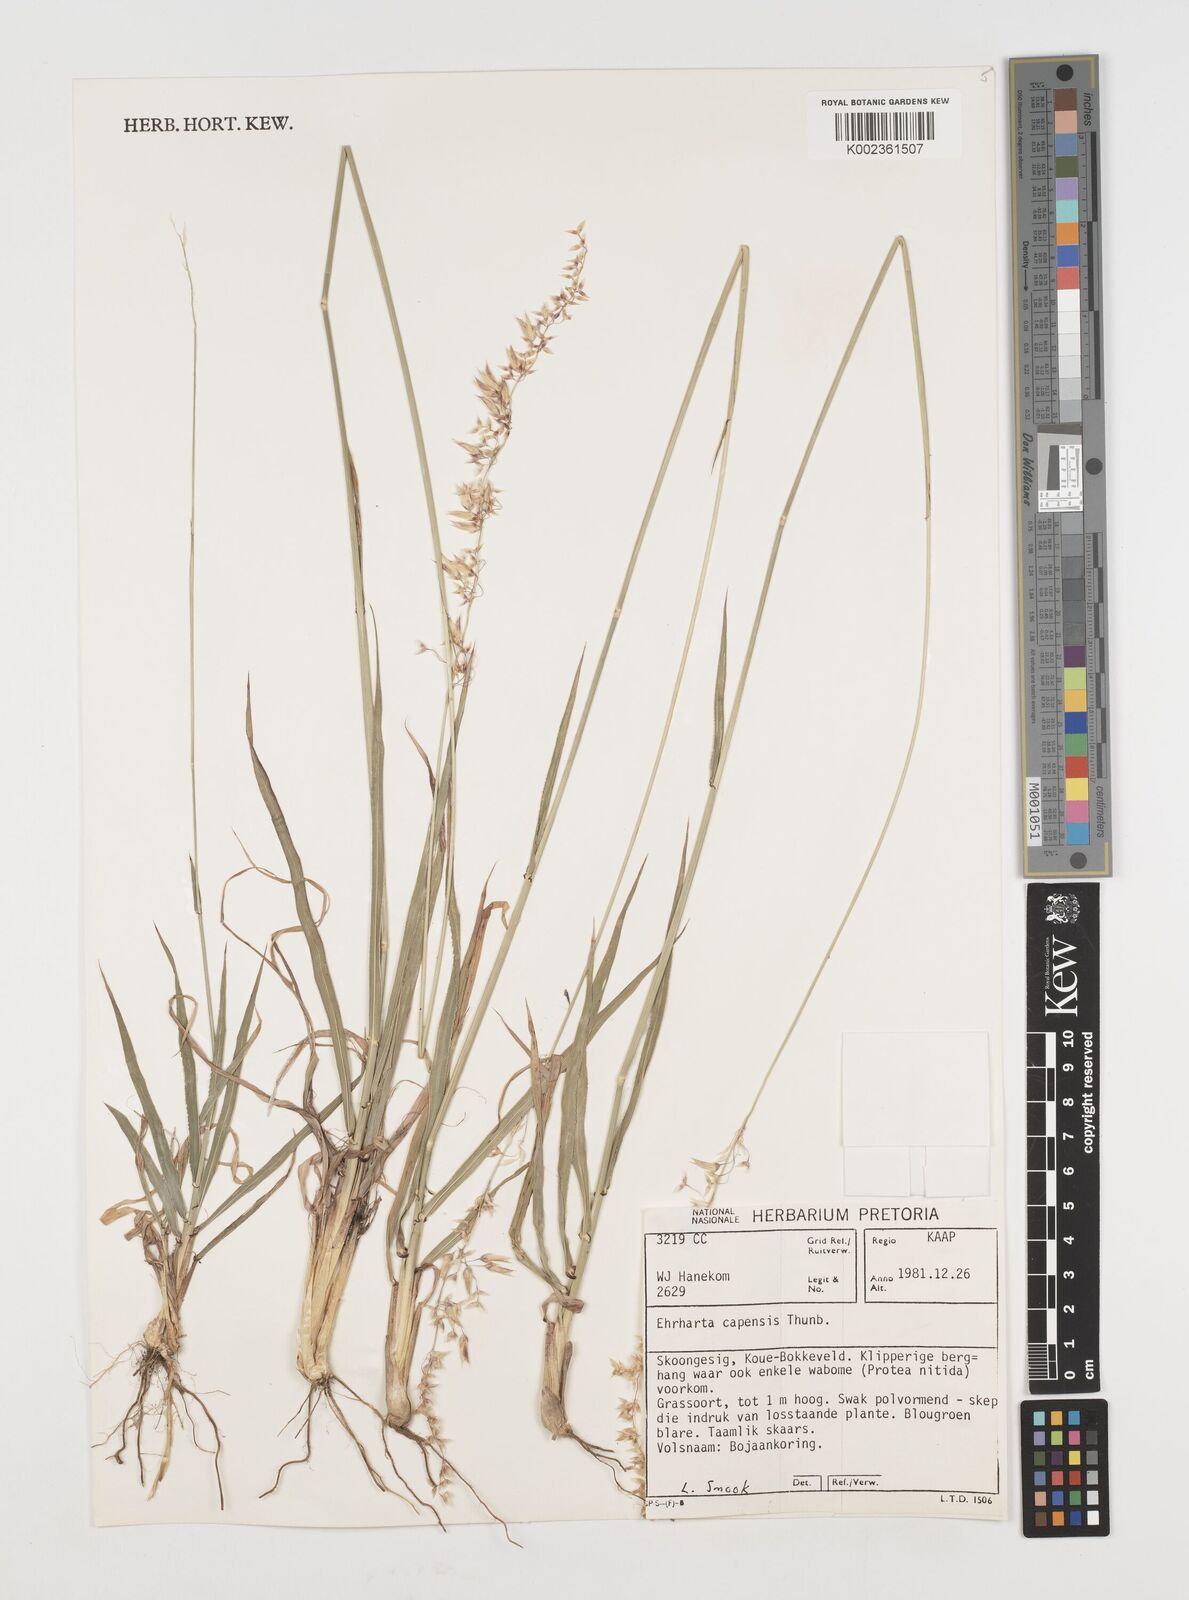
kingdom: Plantae
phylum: Tracheophyta
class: Liliopsida
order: Poales
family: Poaceae
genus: Ehrharta
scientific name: Ehrharta capensis
